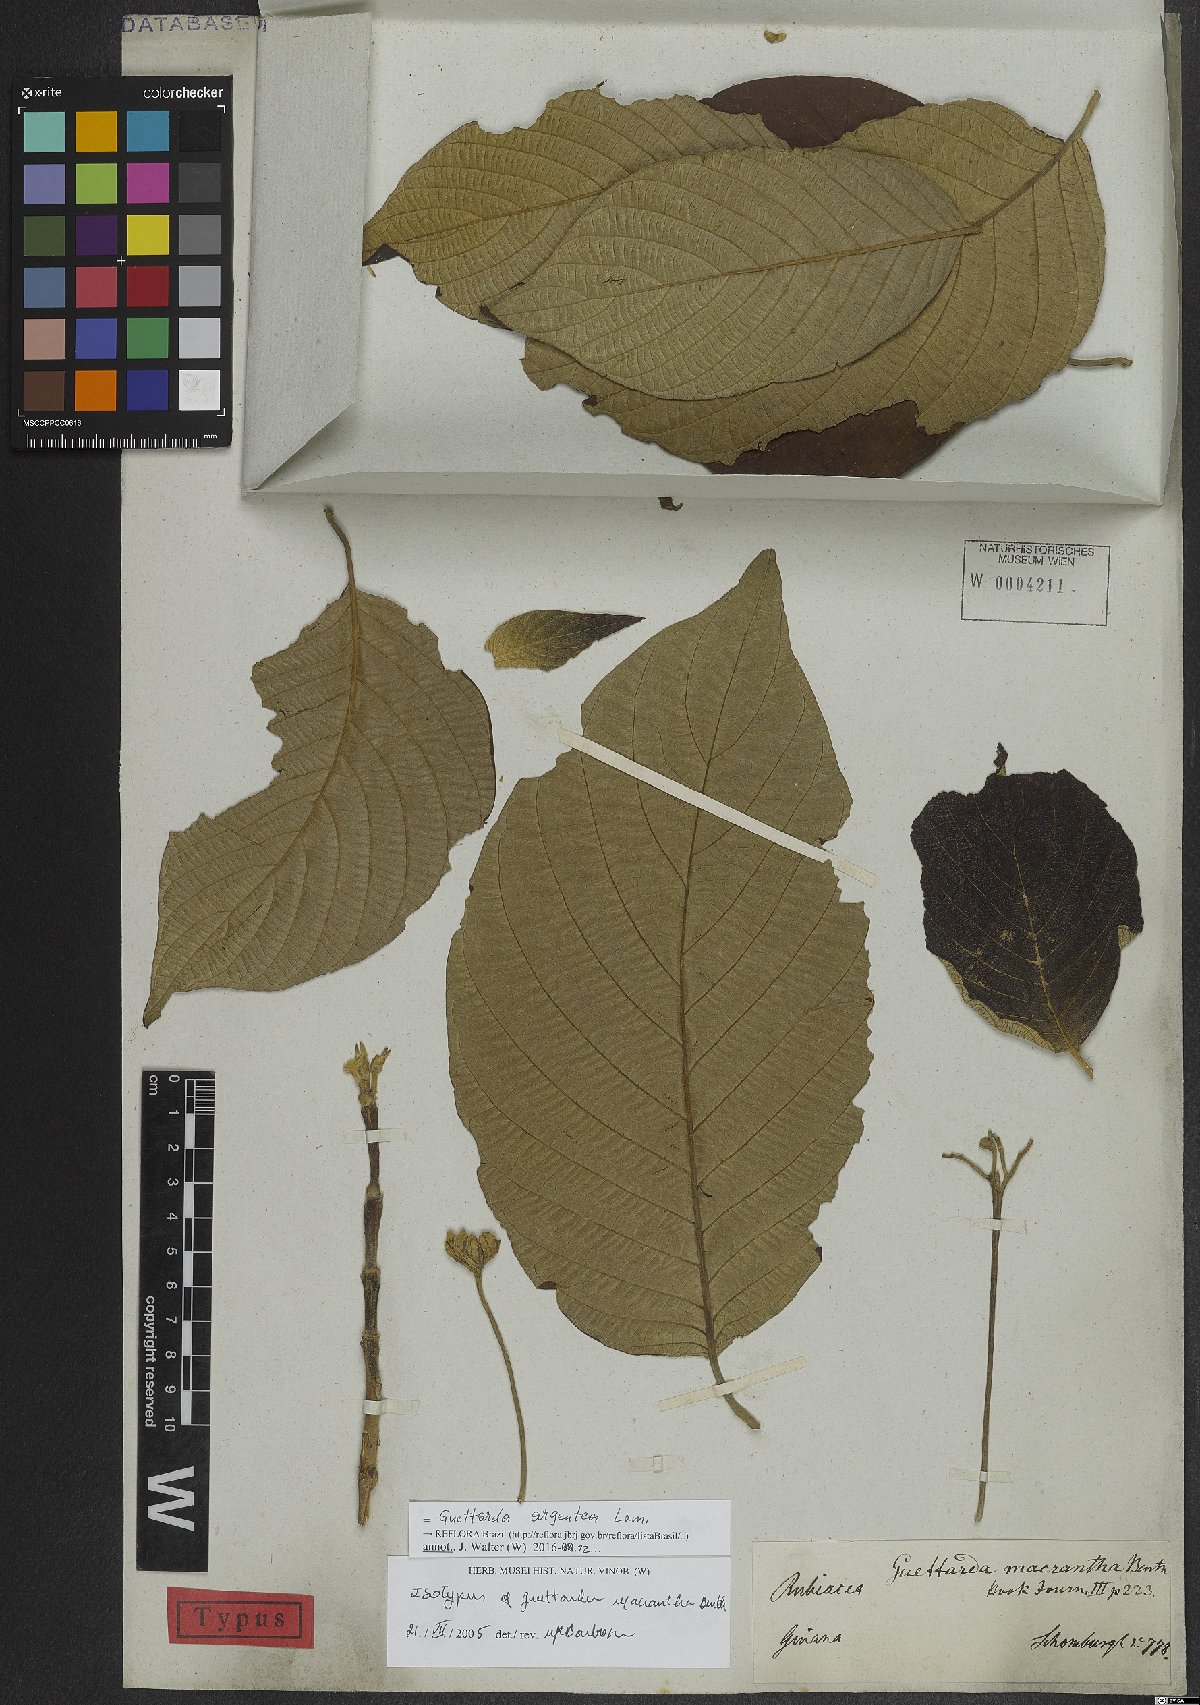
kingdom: Plantae
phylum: Tracheophyta
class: Magnoliopsida
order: Gentianales
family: Rubiaceae
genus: Guettarda
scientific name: Guettarda argentea
